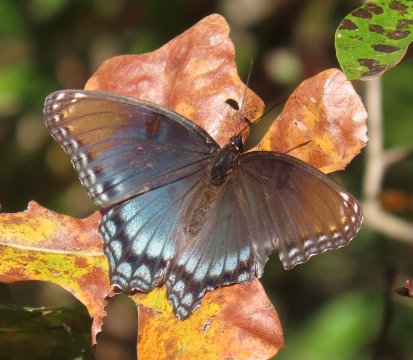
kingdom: Animalia
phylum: Arthropoda
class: Insecta
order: Lepidoptera
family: Nymphalidae
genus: Limenitis
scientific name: Limenitis arthemis
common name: Red-spotted Admiral
